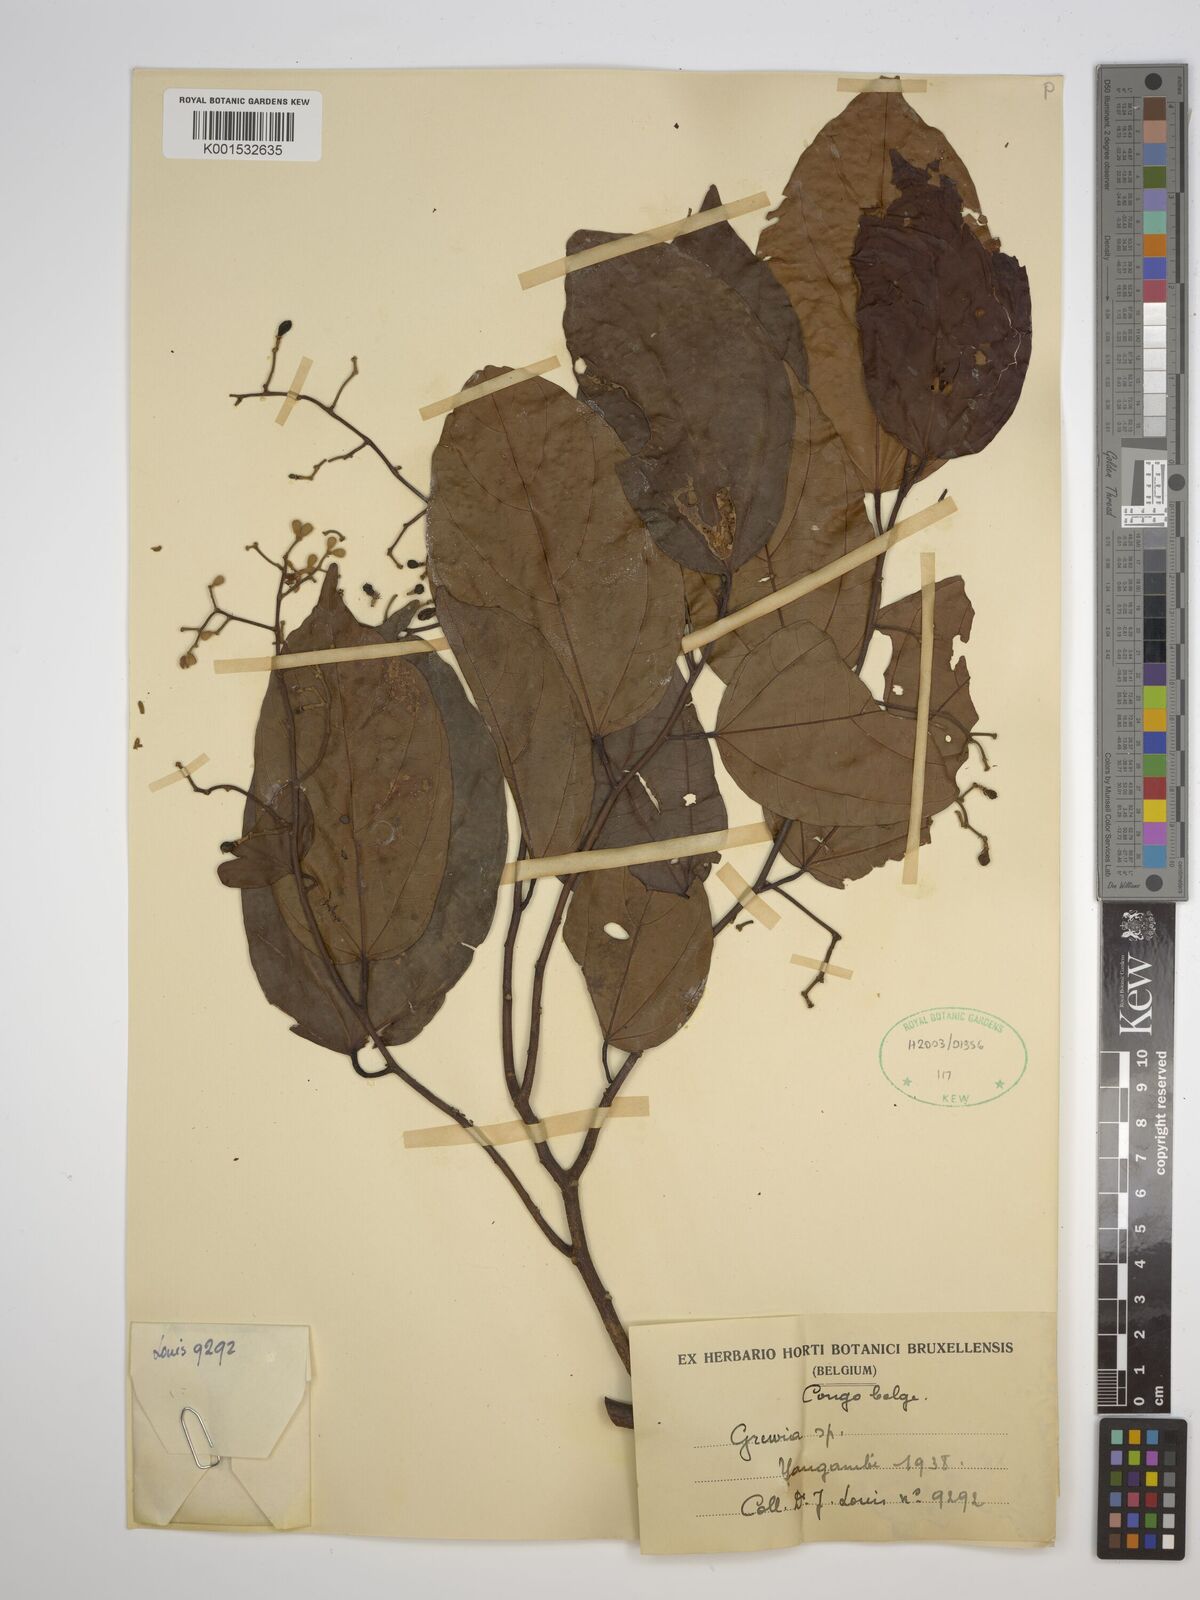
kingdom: Plantae
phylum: Tracheophyta
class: Magnoliopsida
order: Malvales
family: Malvaceae
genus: Grewia
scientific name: Grewia
